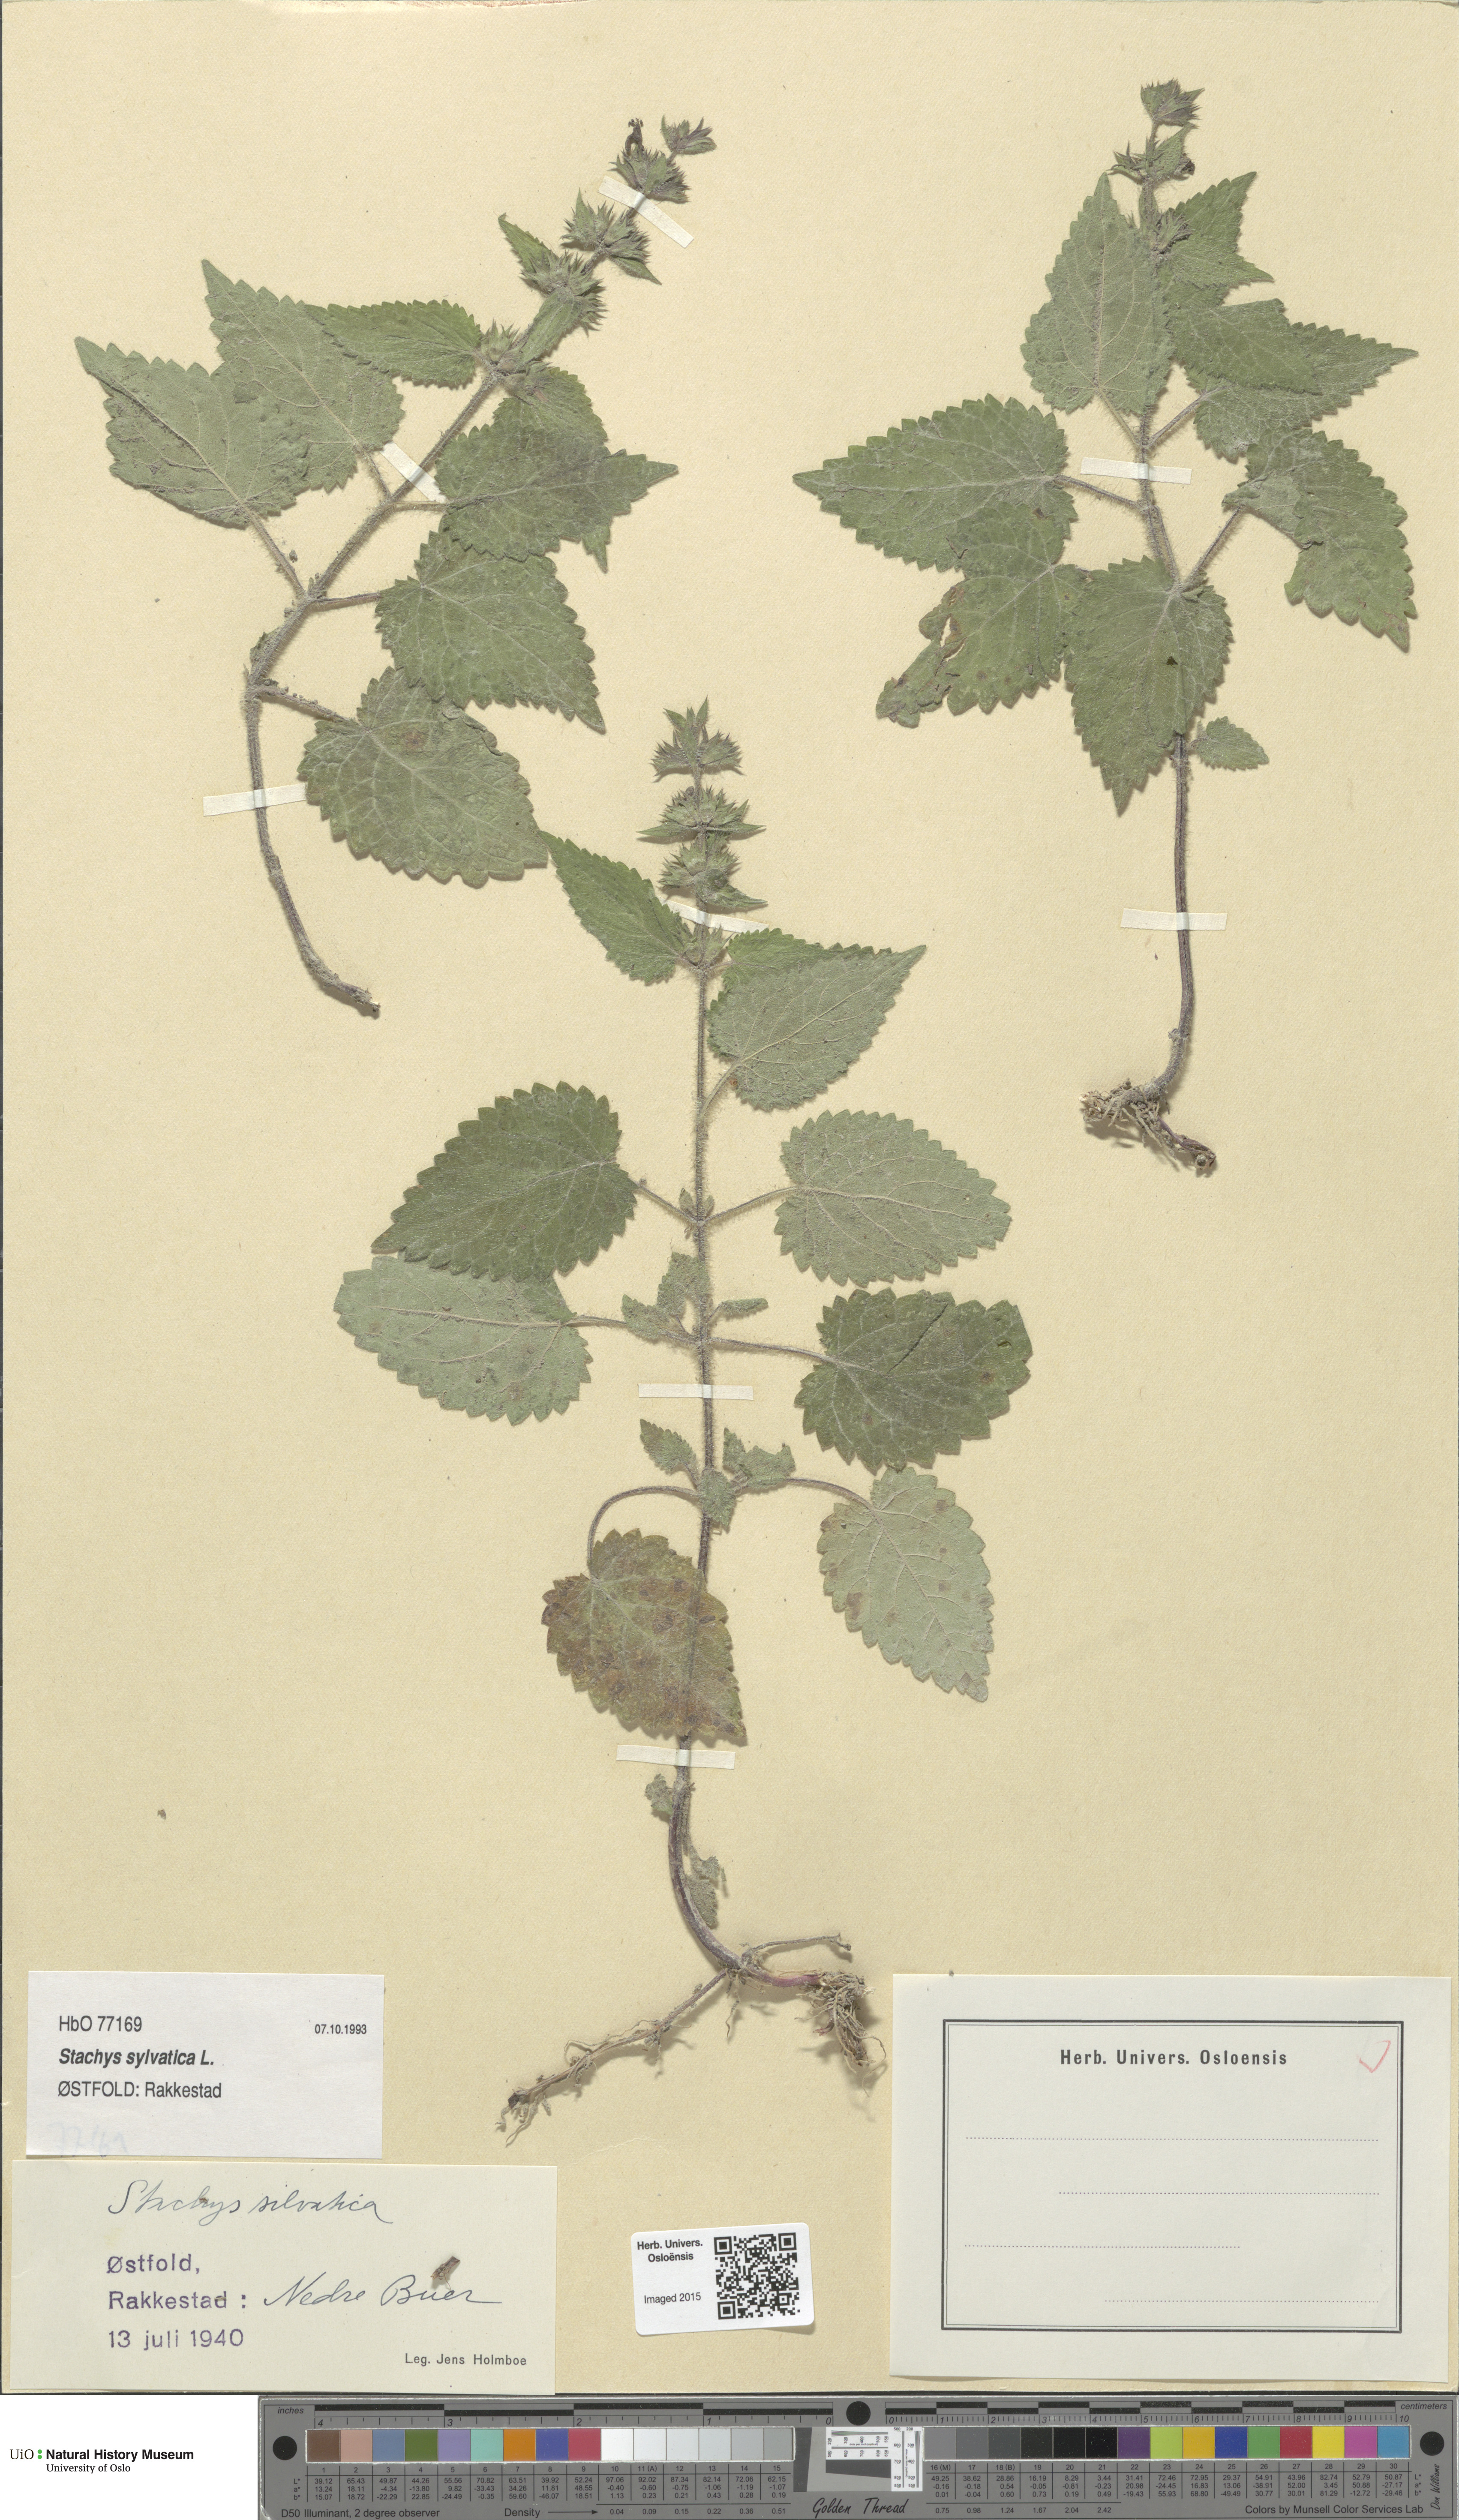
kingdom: Plantae
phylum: Tracheophyta
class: Magnoliopsida
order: Lamiales
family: Lamiaceae
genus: Stachys
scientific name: Stachys sylvatica
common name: Hedge woundwort
